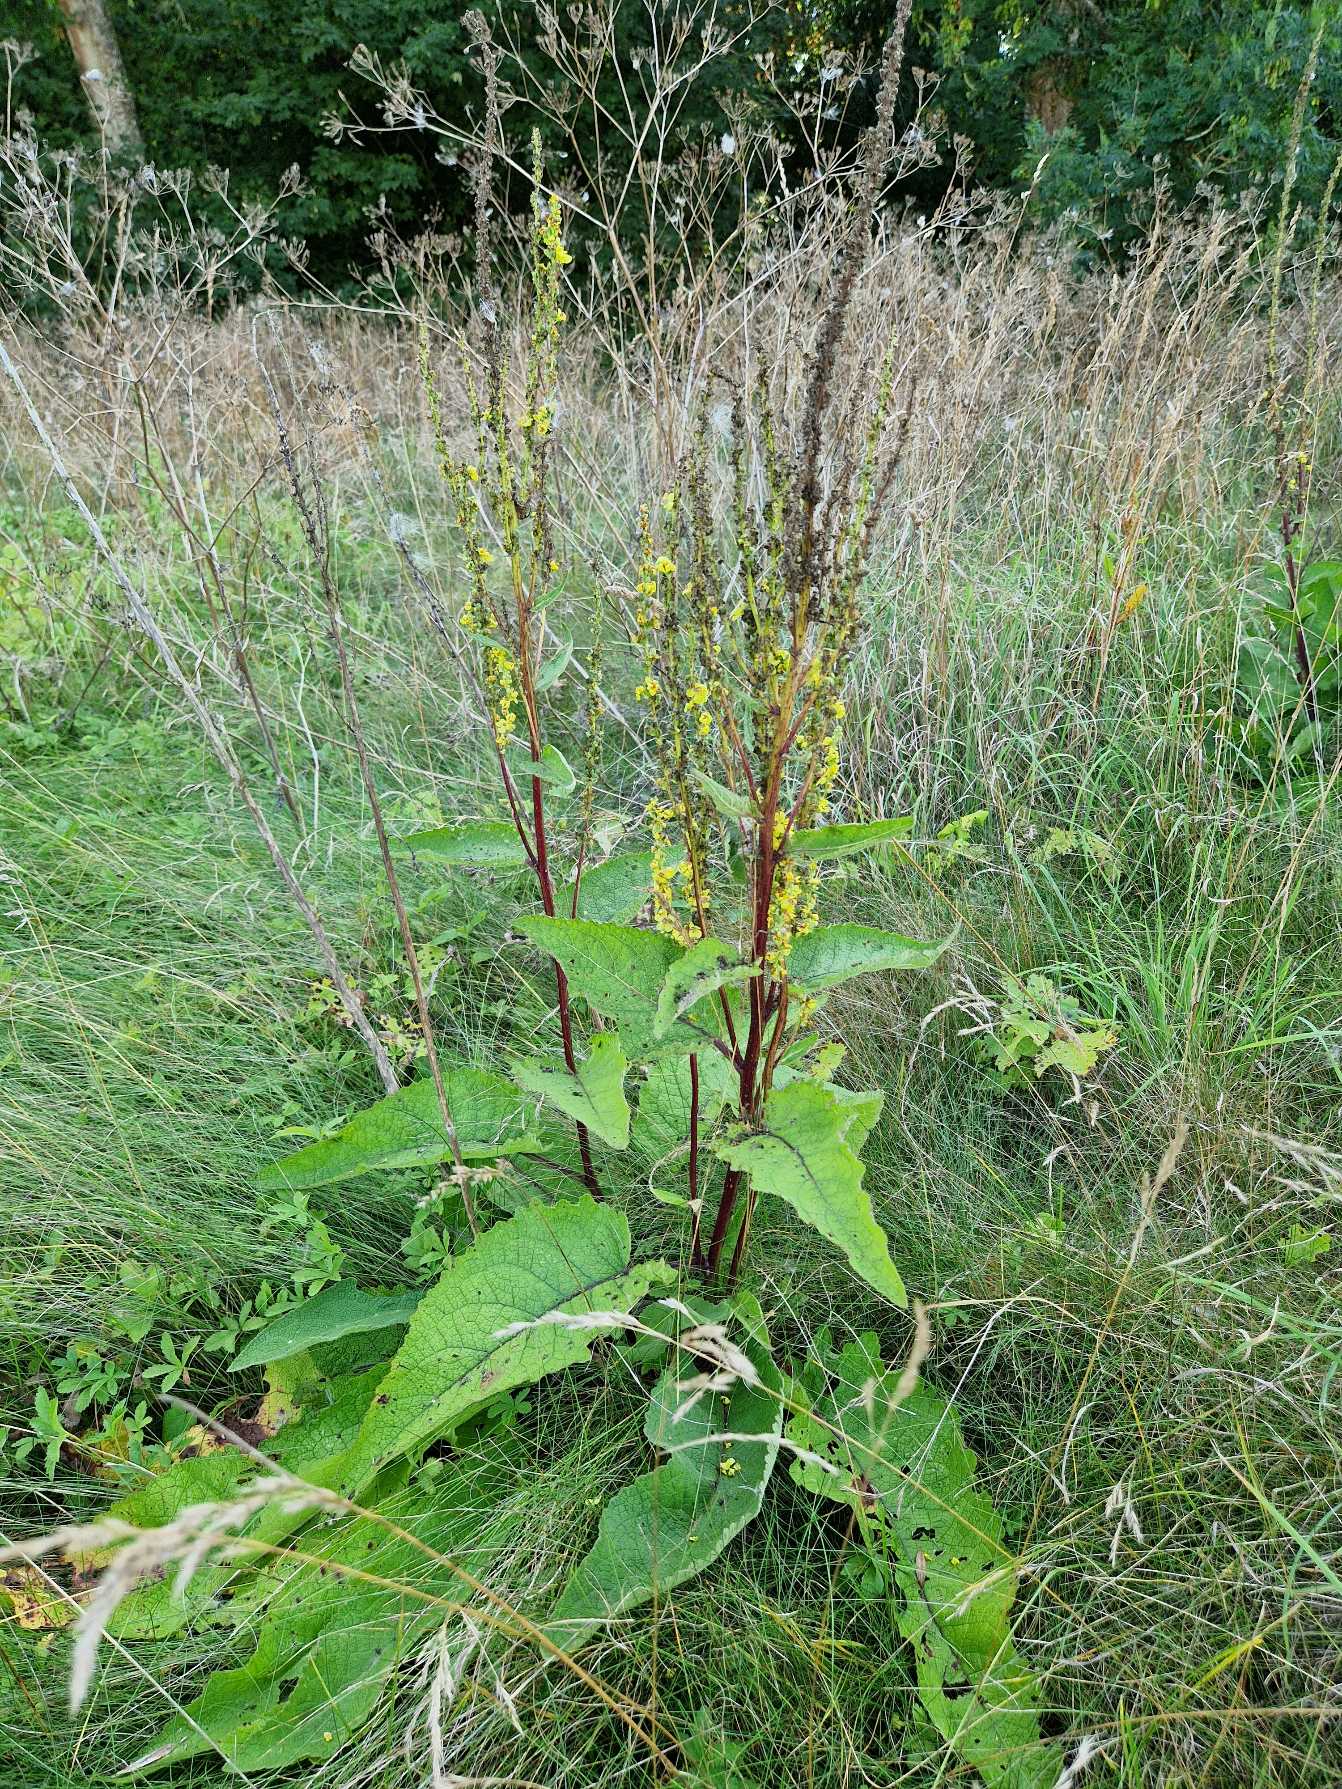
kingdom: Plantae
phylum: Tracheophyta
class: Magnoliopsida
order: Lamiales
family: Scrophulariaceae
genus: Verbascum
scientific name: Verbascum nigrum
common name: Mørk kongelys
